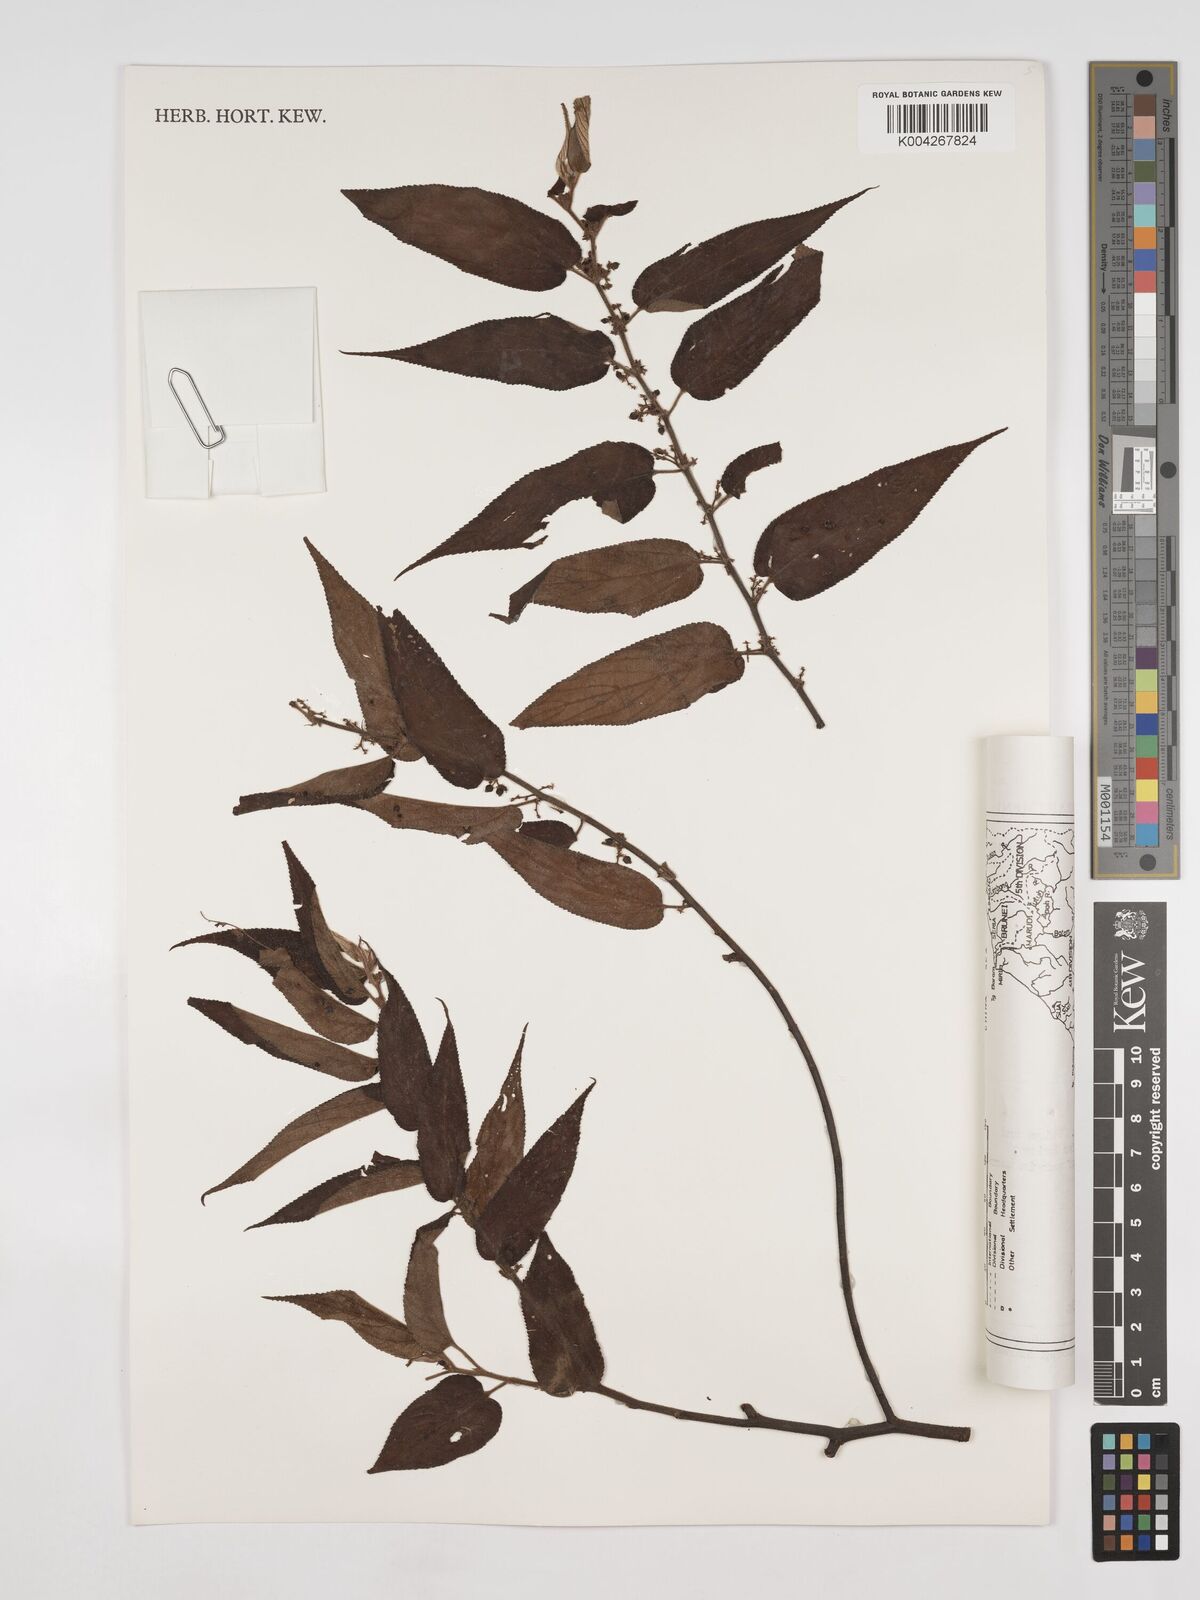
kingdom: Plantae
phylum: Tracheophyta
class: Magnoliopsida
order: Rosales
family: Cannabaceae
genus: Trema
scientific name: Trema orientale
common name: Indian charcoal tree
